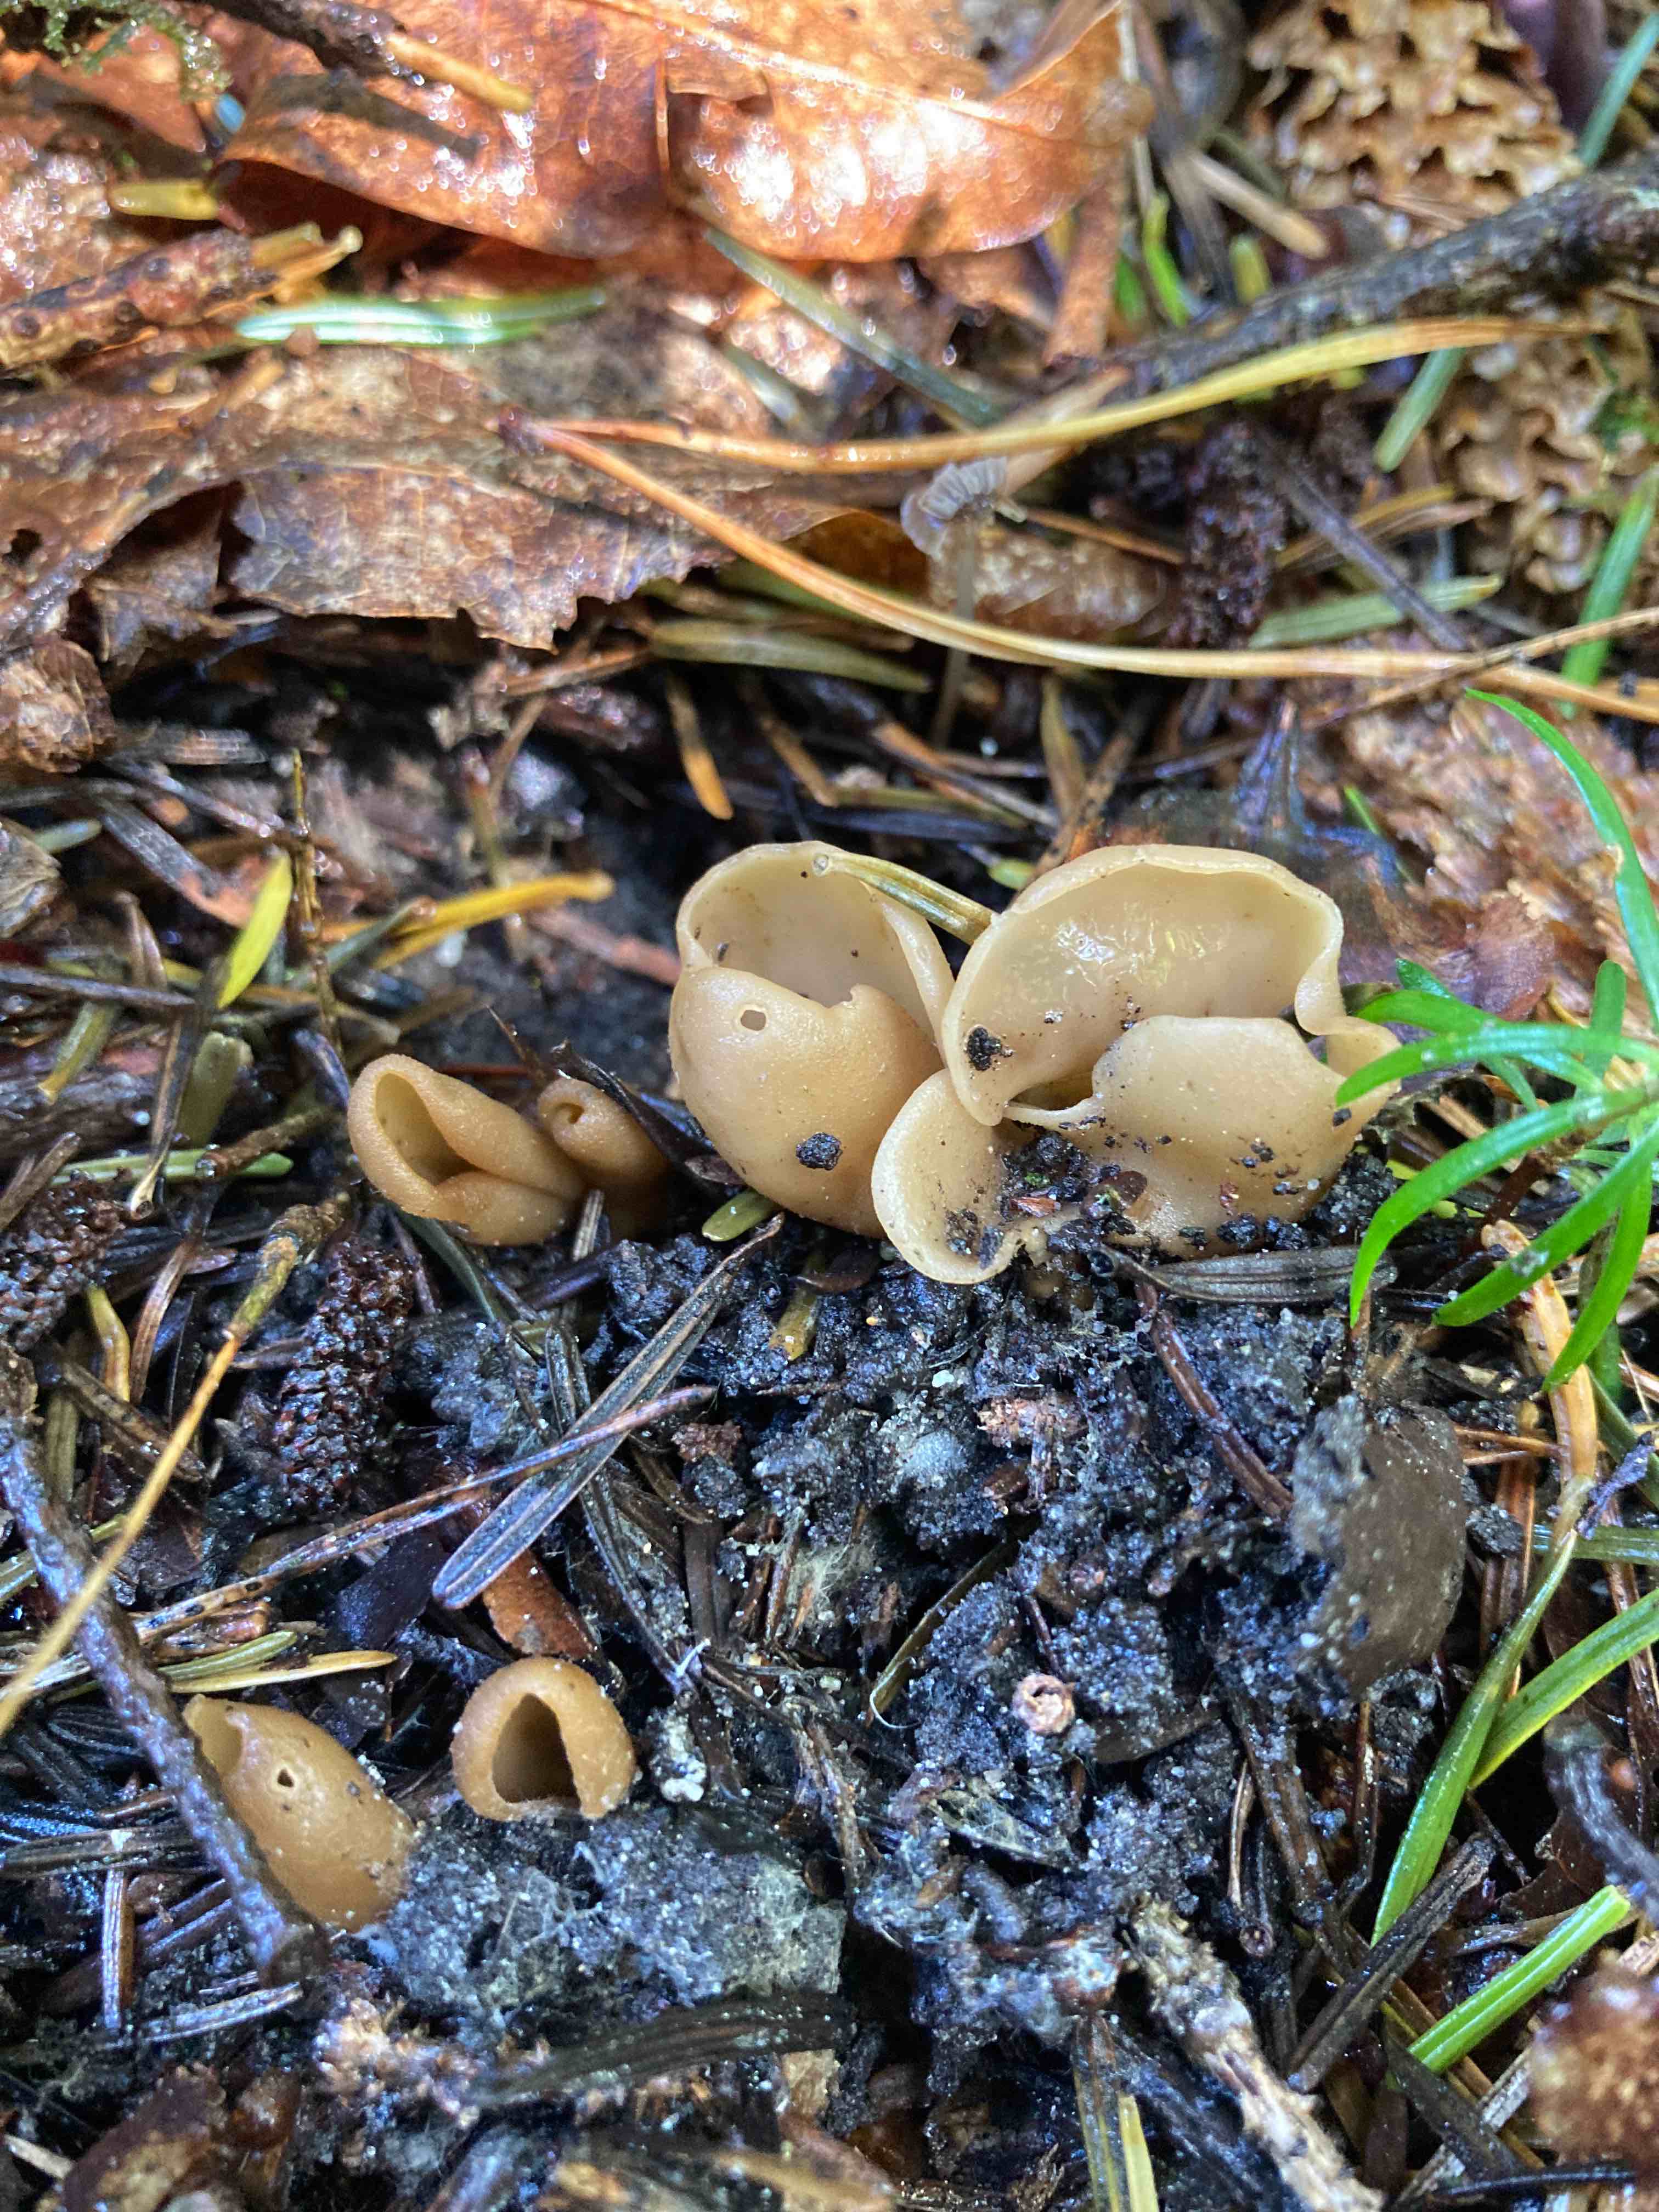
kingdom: Fungi
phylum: Ascomycota
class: Pezizomycetes
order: Pezizales
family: Otideaceae
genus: Otidea
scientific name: Otidea alutacea
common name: læder-ørebæger
